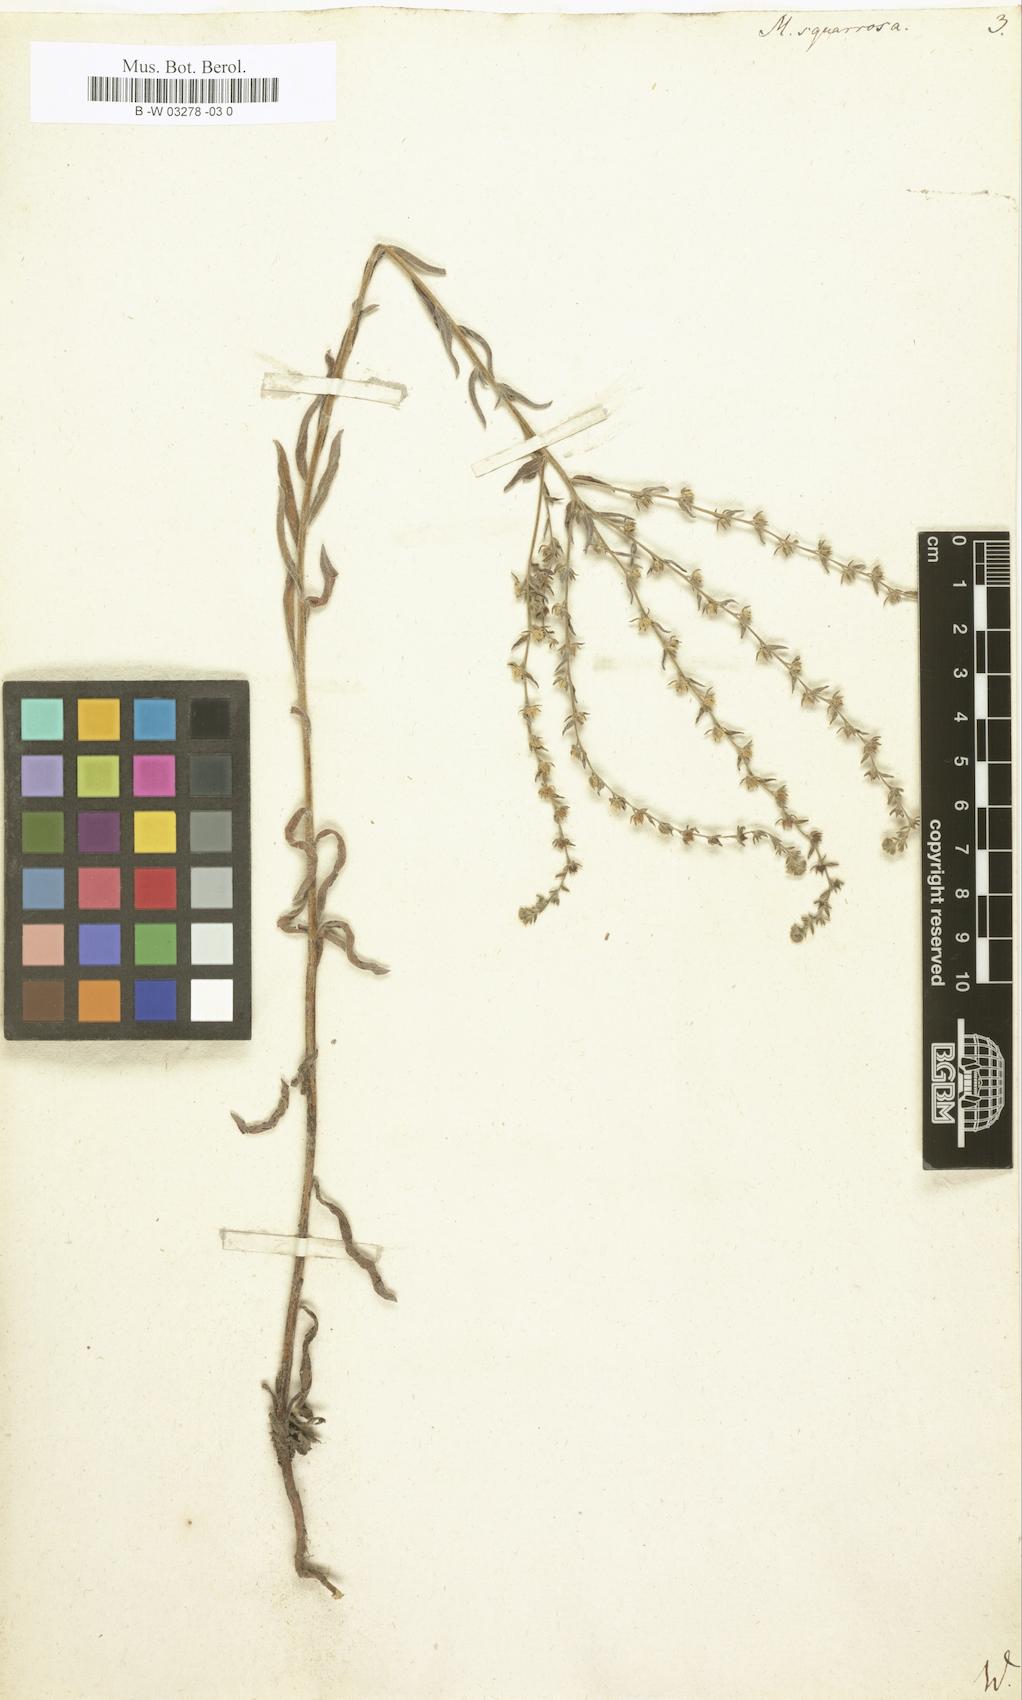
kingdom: Plantae
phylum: Tracheophyta
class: Magnoliopsida
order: Boraginales
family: Boraginaceae
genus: Lappula
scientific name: Lappula squarrosa
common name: European stickseed
